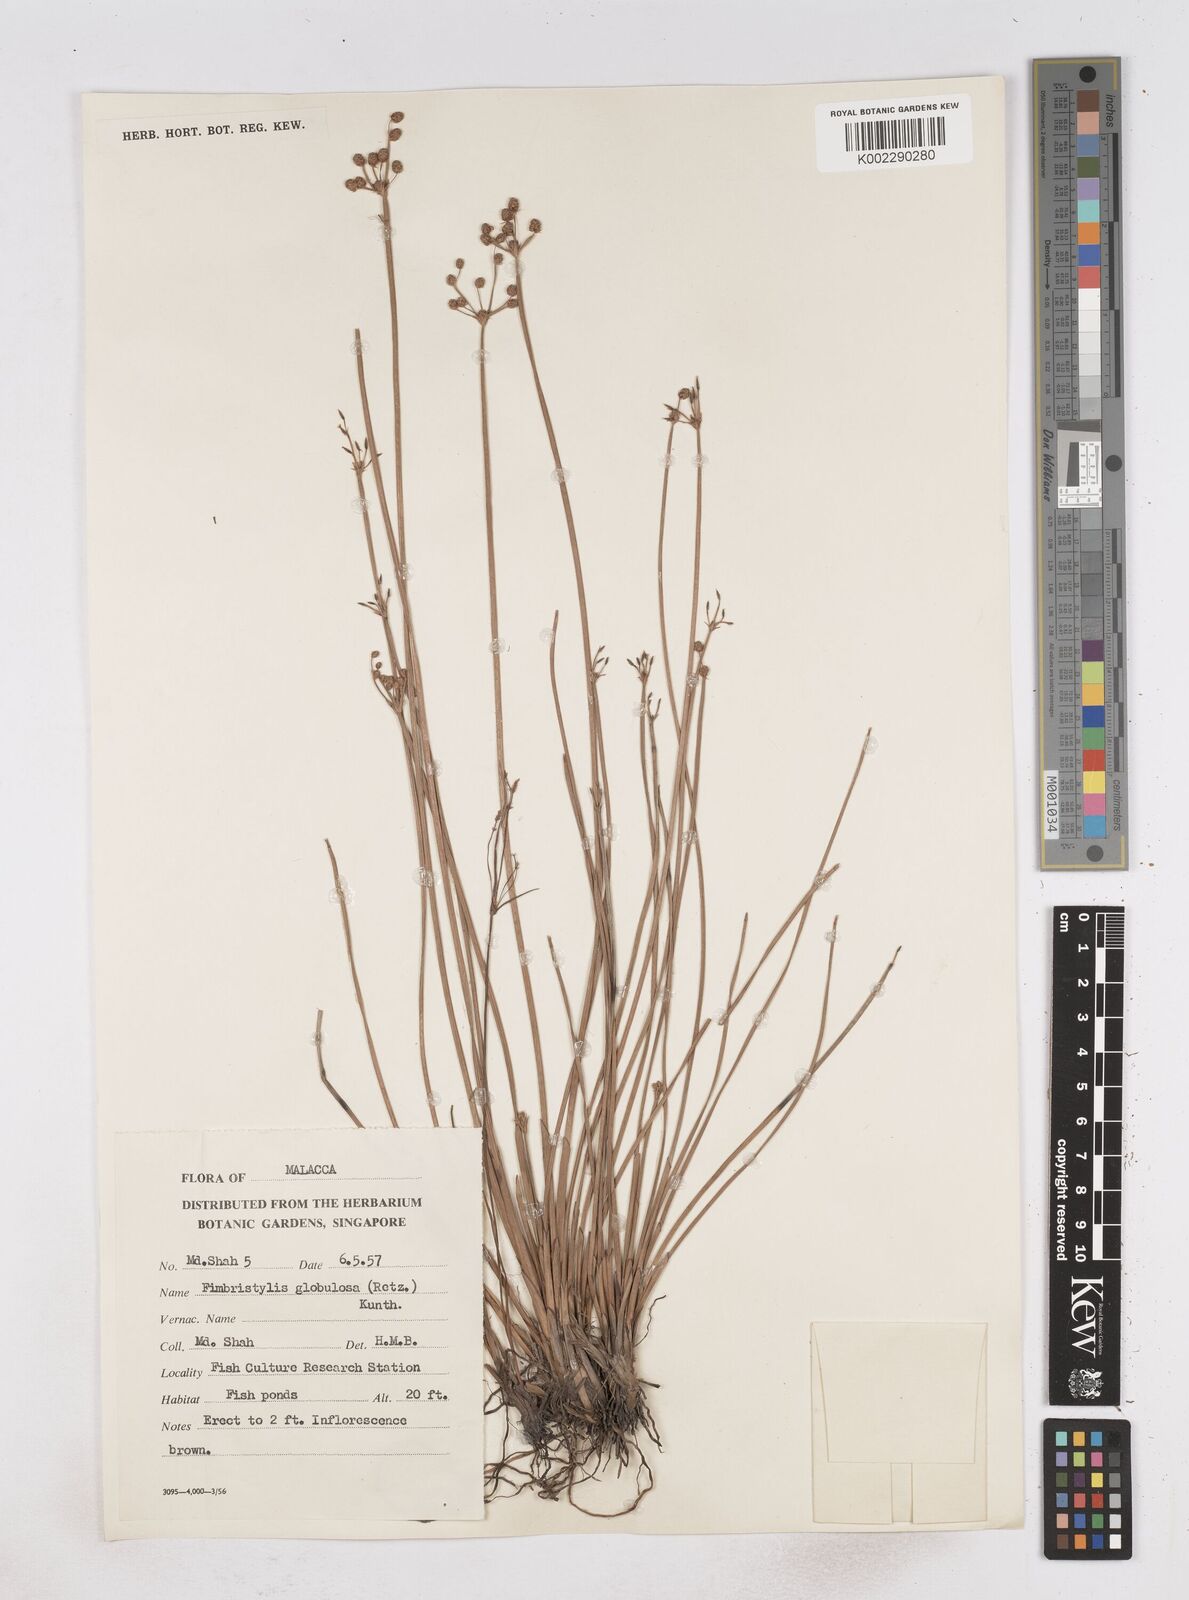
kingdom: Plantae
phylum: Tracheophyta
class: Liliopsida
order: Poales
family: Cyperaceae
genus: Fimbristylis
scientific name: Fimbristylis umbellaris
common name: Globular fimbristylis
